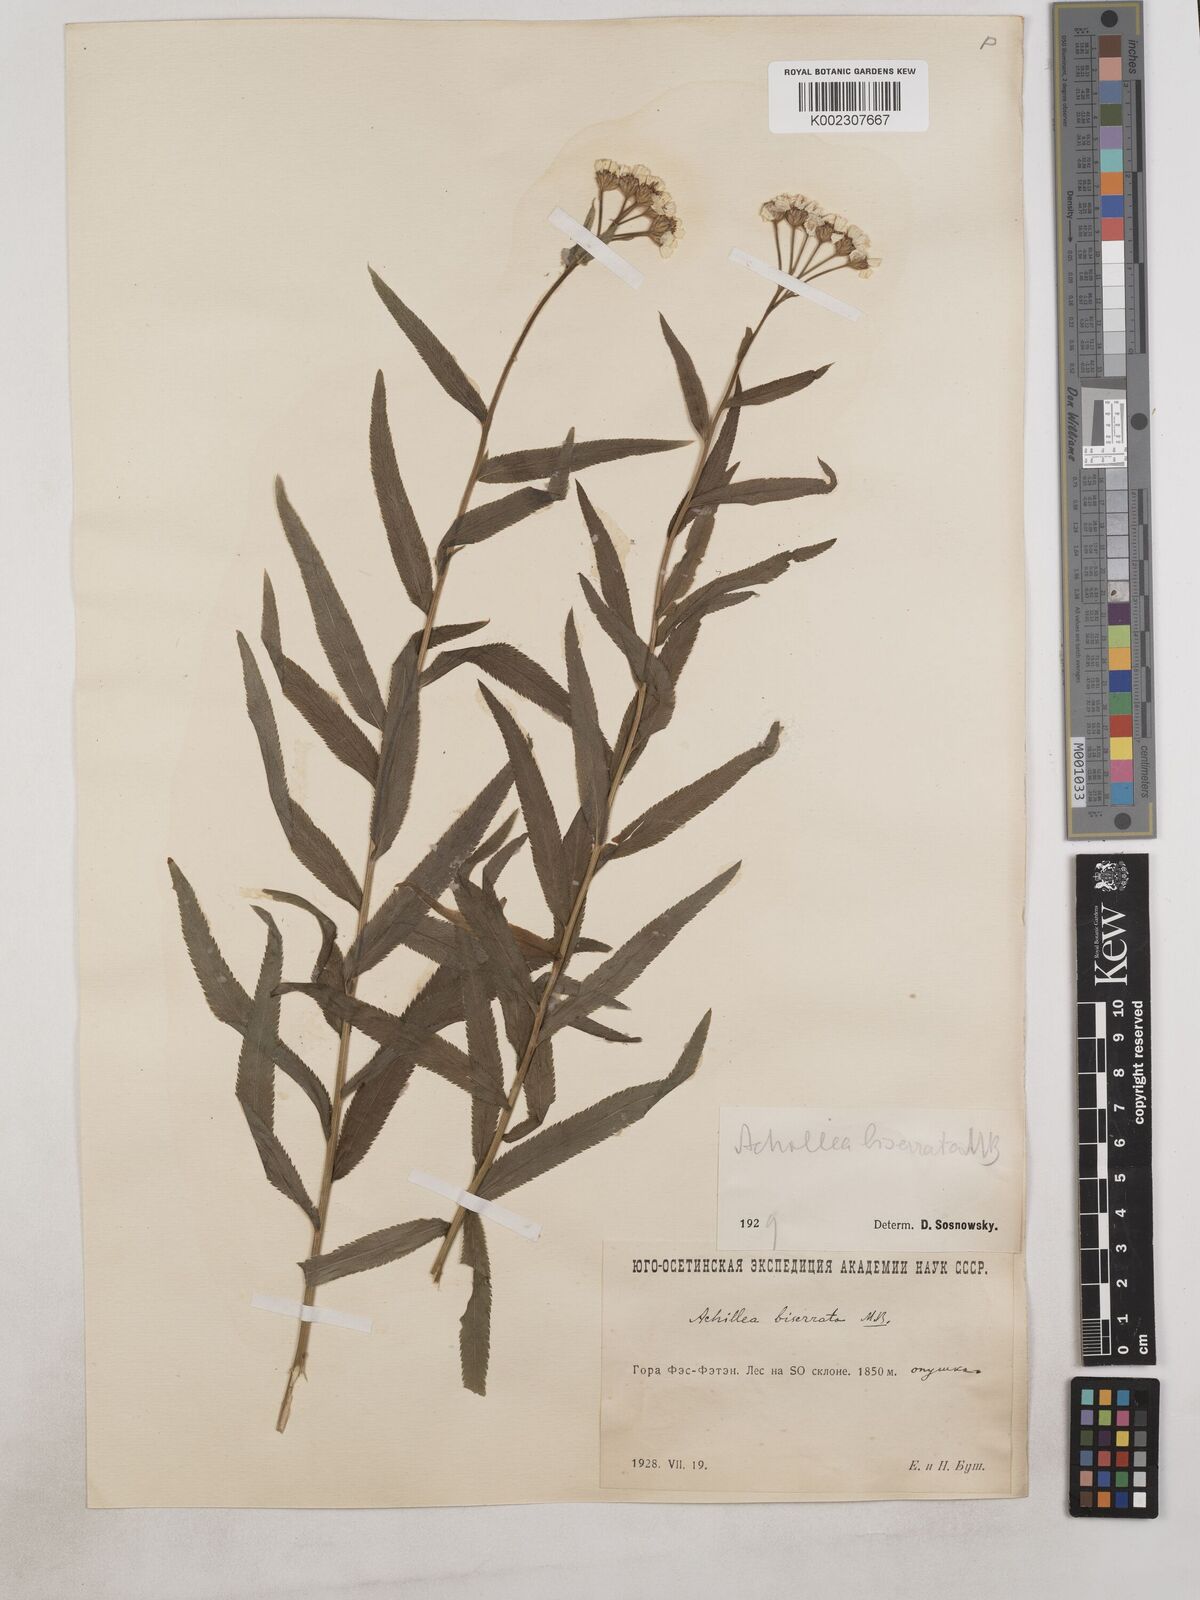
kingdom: Plantae
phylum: Tracheophyta
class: Magnoliopsida
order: Asterales
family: Asteraceae
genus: Achillea
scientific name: Achillea biserrata
